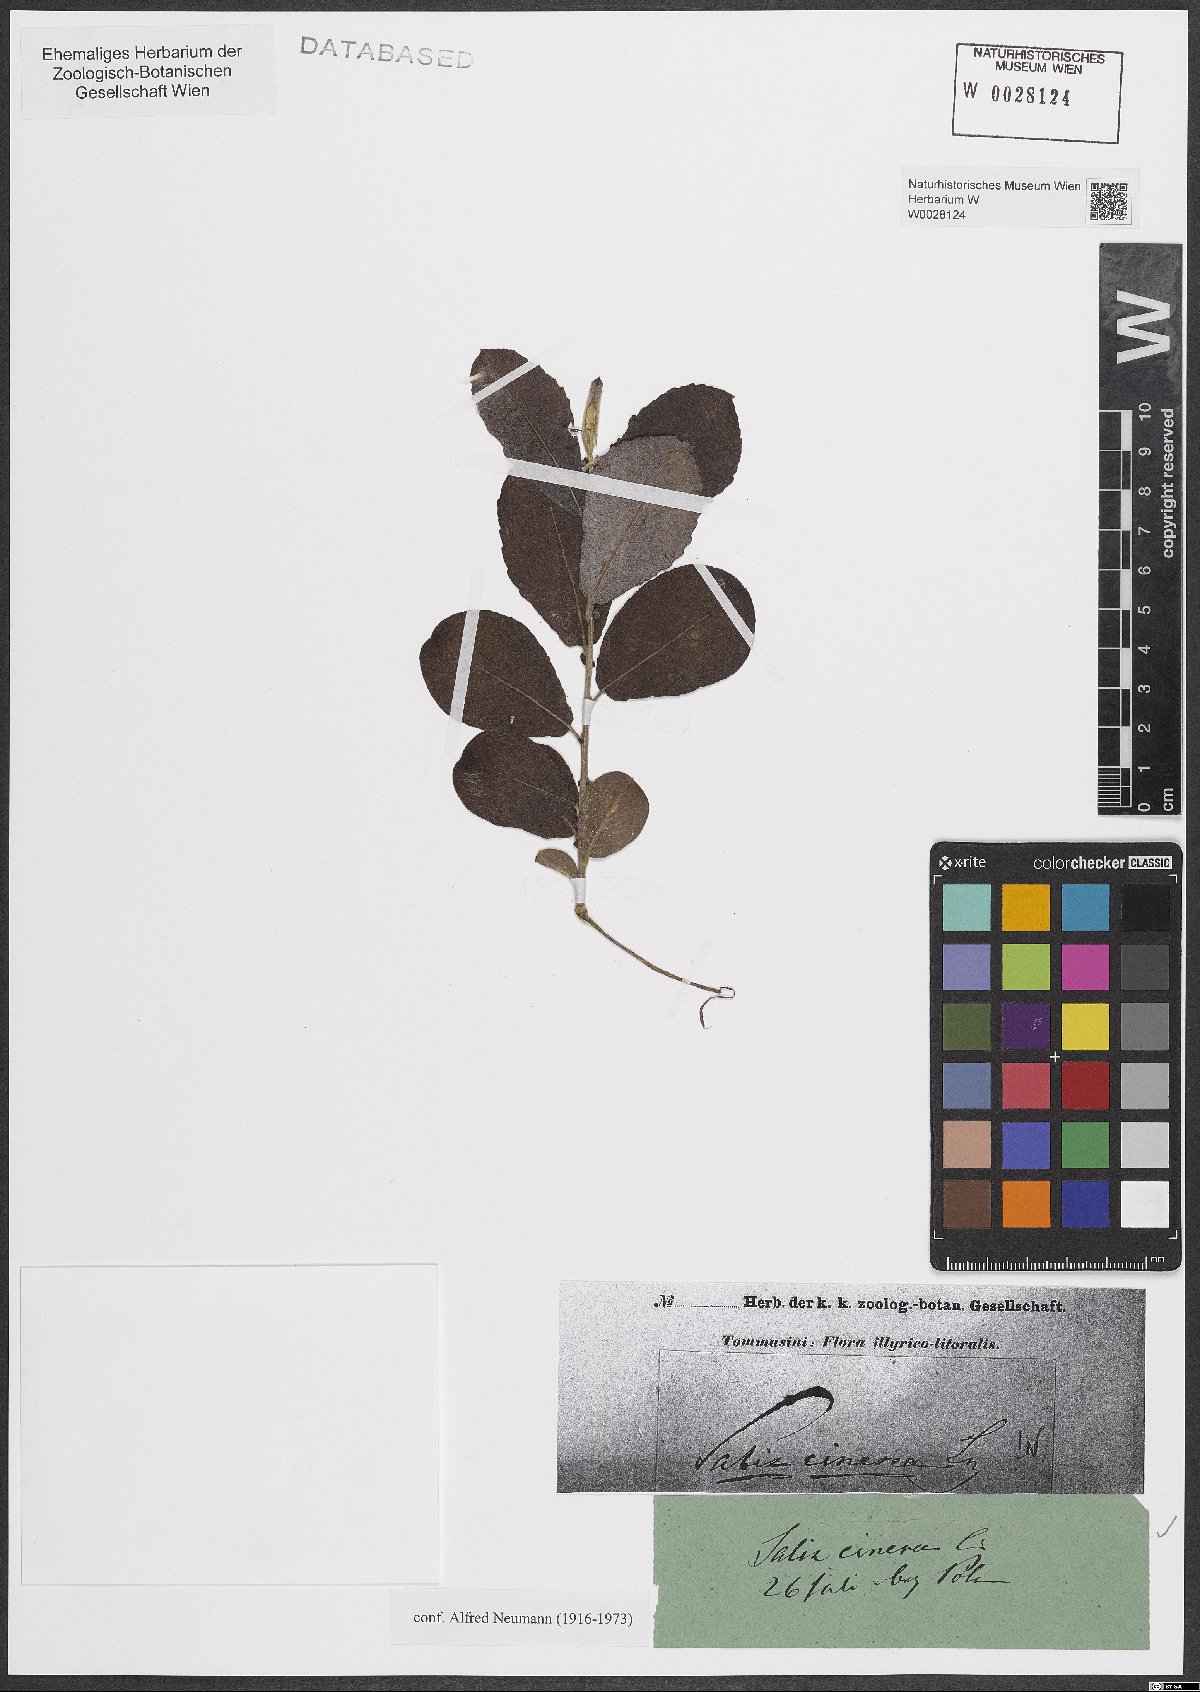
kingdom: Plantae
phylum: Tracheophyta
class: Magnoliopsida
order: Malpighiales
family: Salicaceae
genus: Salix
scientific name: Salix cinerea
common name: Common sallow
